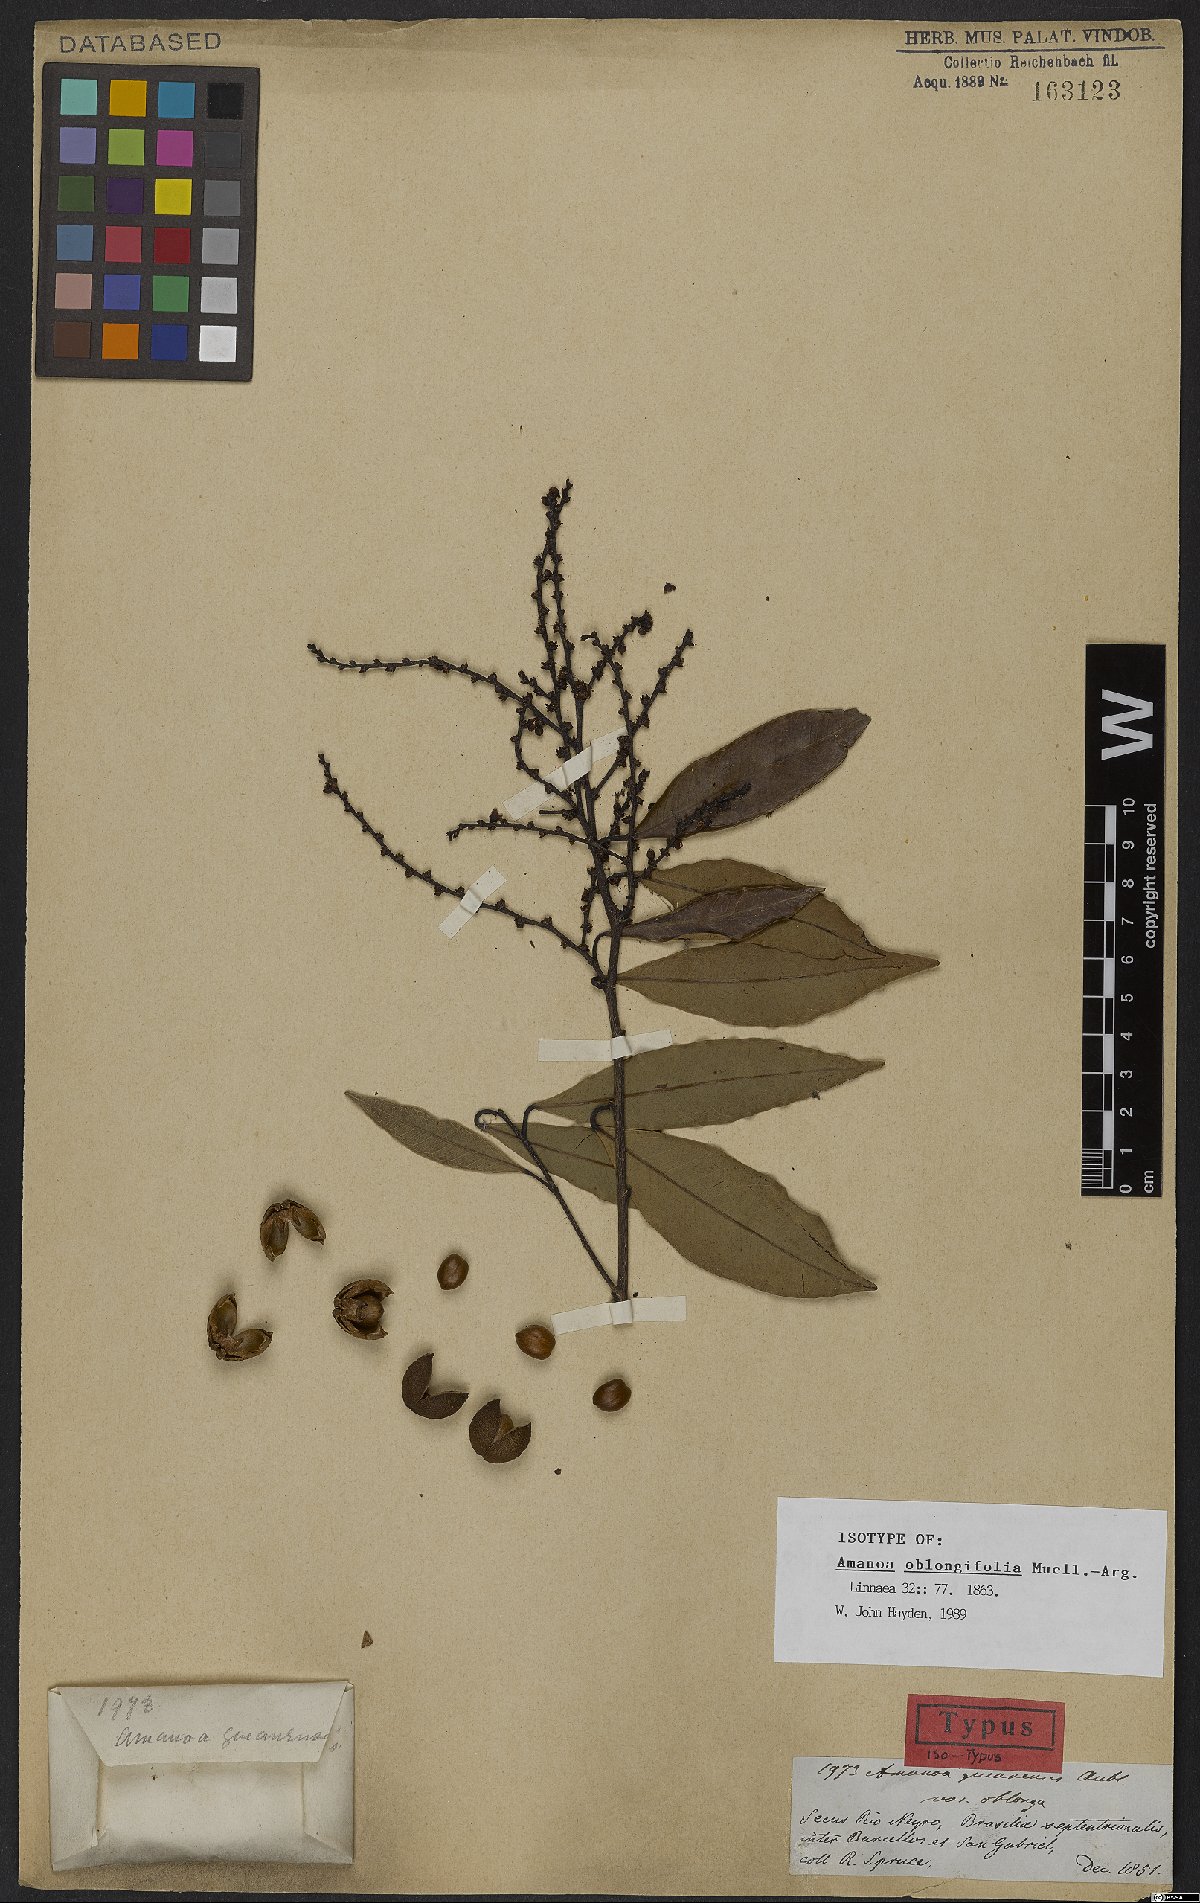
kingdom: Plantae
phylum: Tracheophyta
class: Magnoliopsida
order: Malpighiales
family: Euphorbiaceae
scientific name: Euphorbiaceae
